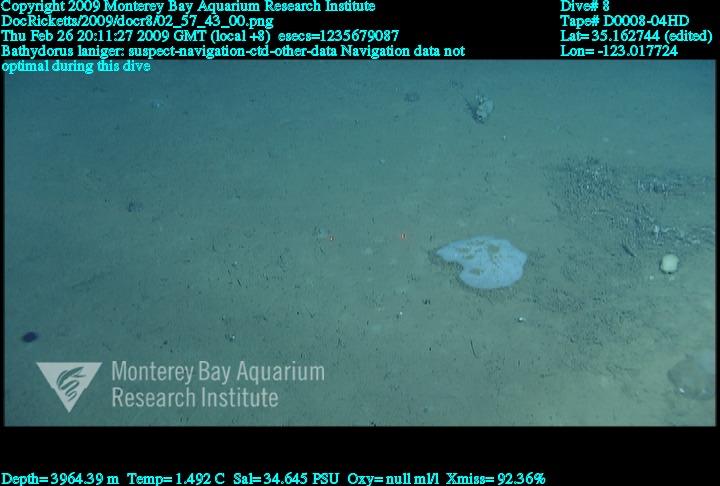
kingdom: Animalia
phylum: Porifera
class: Hexactinellida
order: Lyssacinosida
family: Rossellidae
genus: Bathydorus
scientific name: Bathydorus laniger
